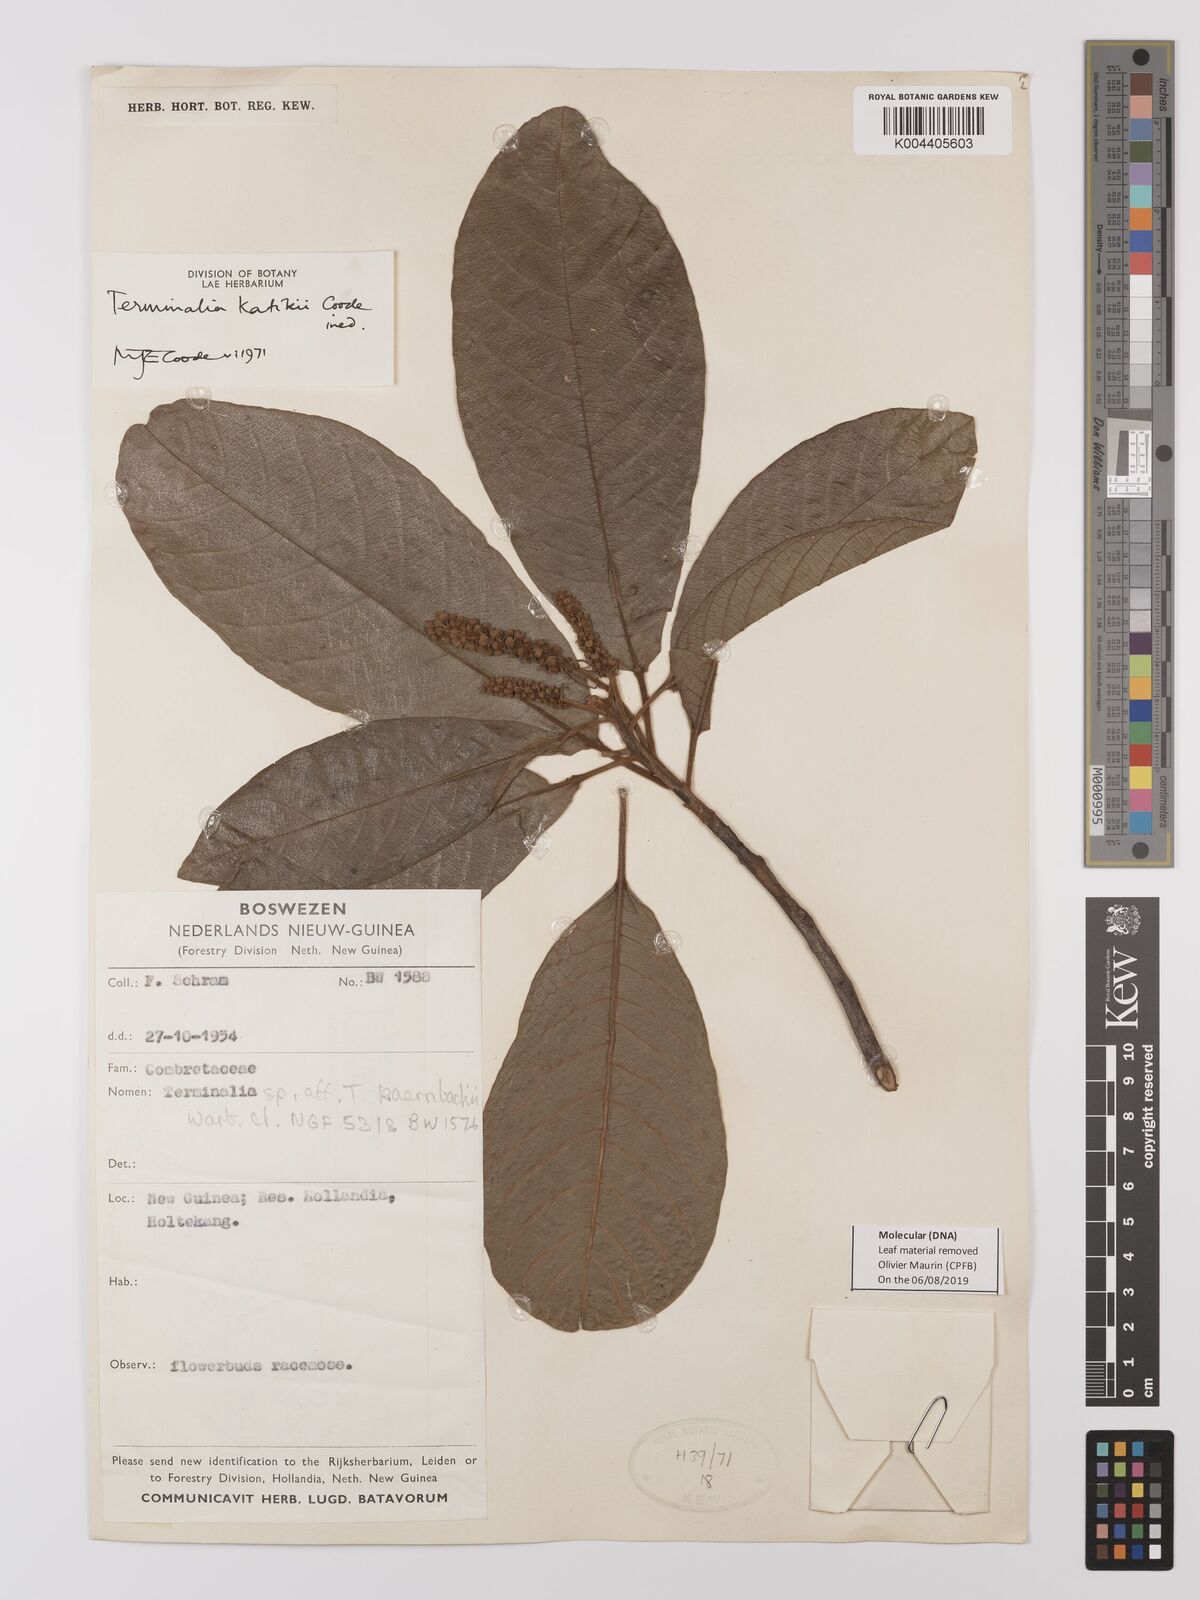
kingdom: Plantae
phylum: Tracheophyta
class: Magnoliopsida
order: Myrtales
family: Combretaceae
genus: Terminalia
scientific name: Terminalia katikii
